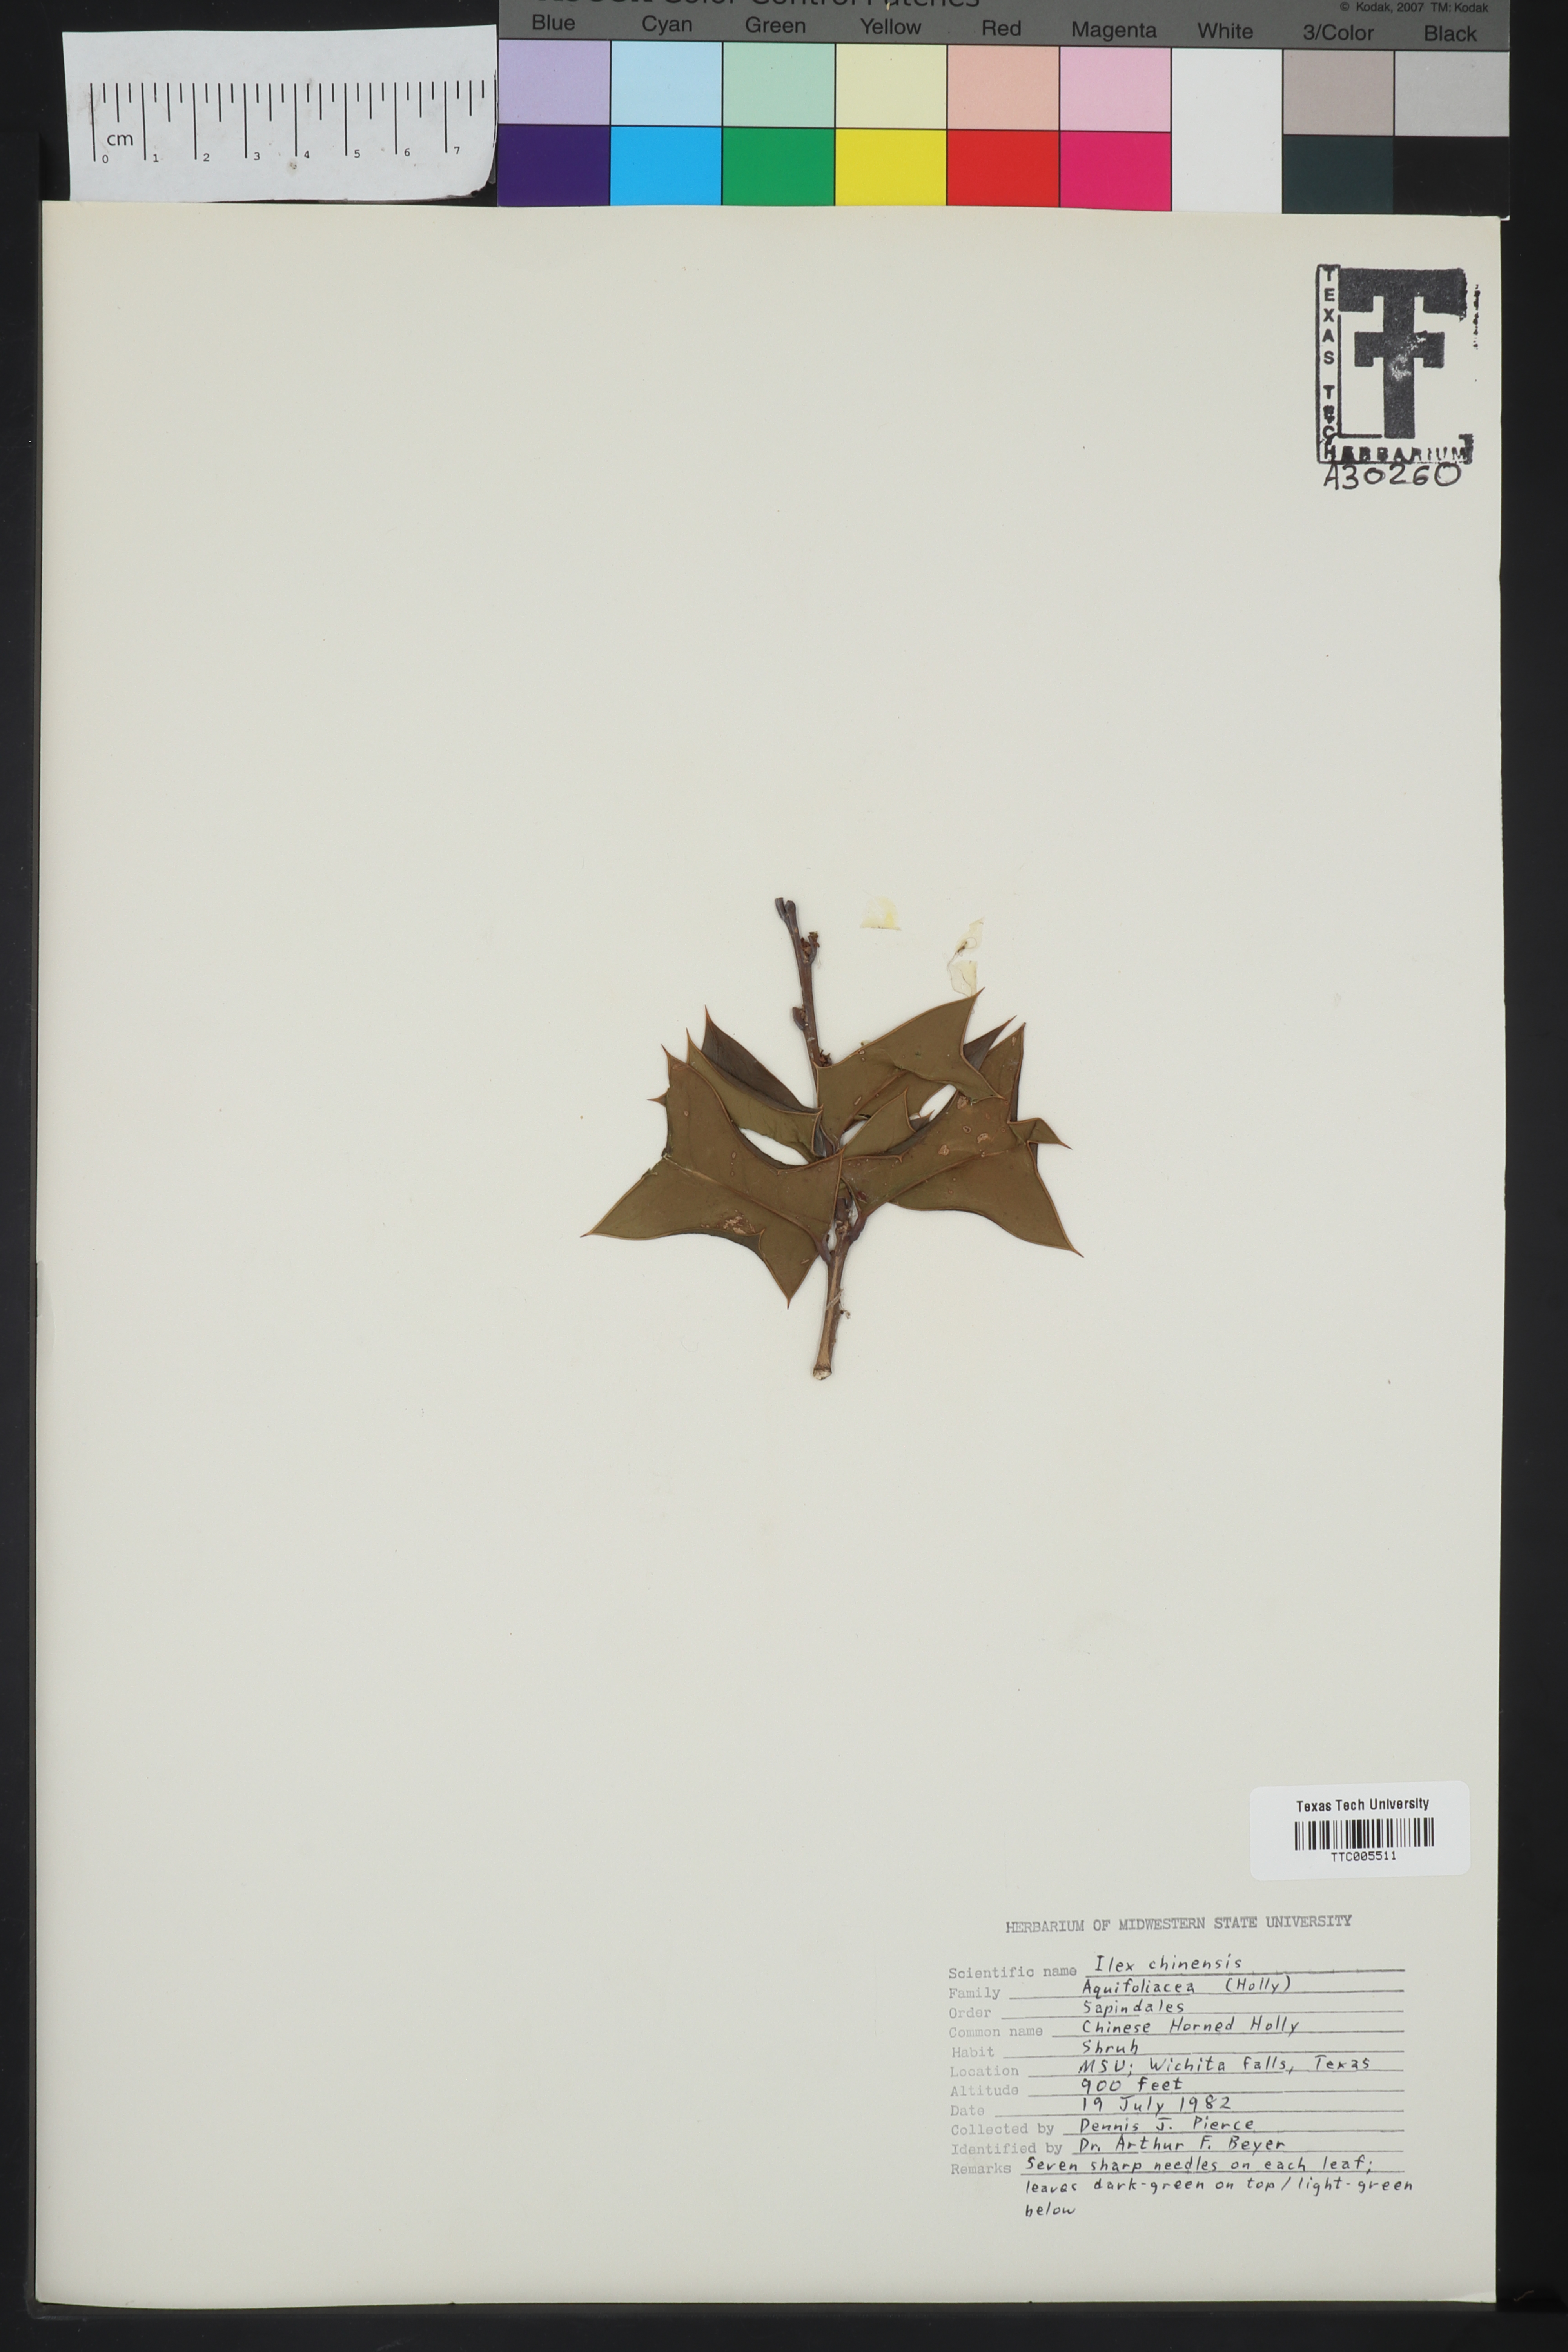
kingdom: Plantae
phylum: Tracheophyta
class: Magnoliopsida
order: Aquifoliales
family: Aquifoliaceae
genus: Ilex
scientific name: Ilex chinensis
